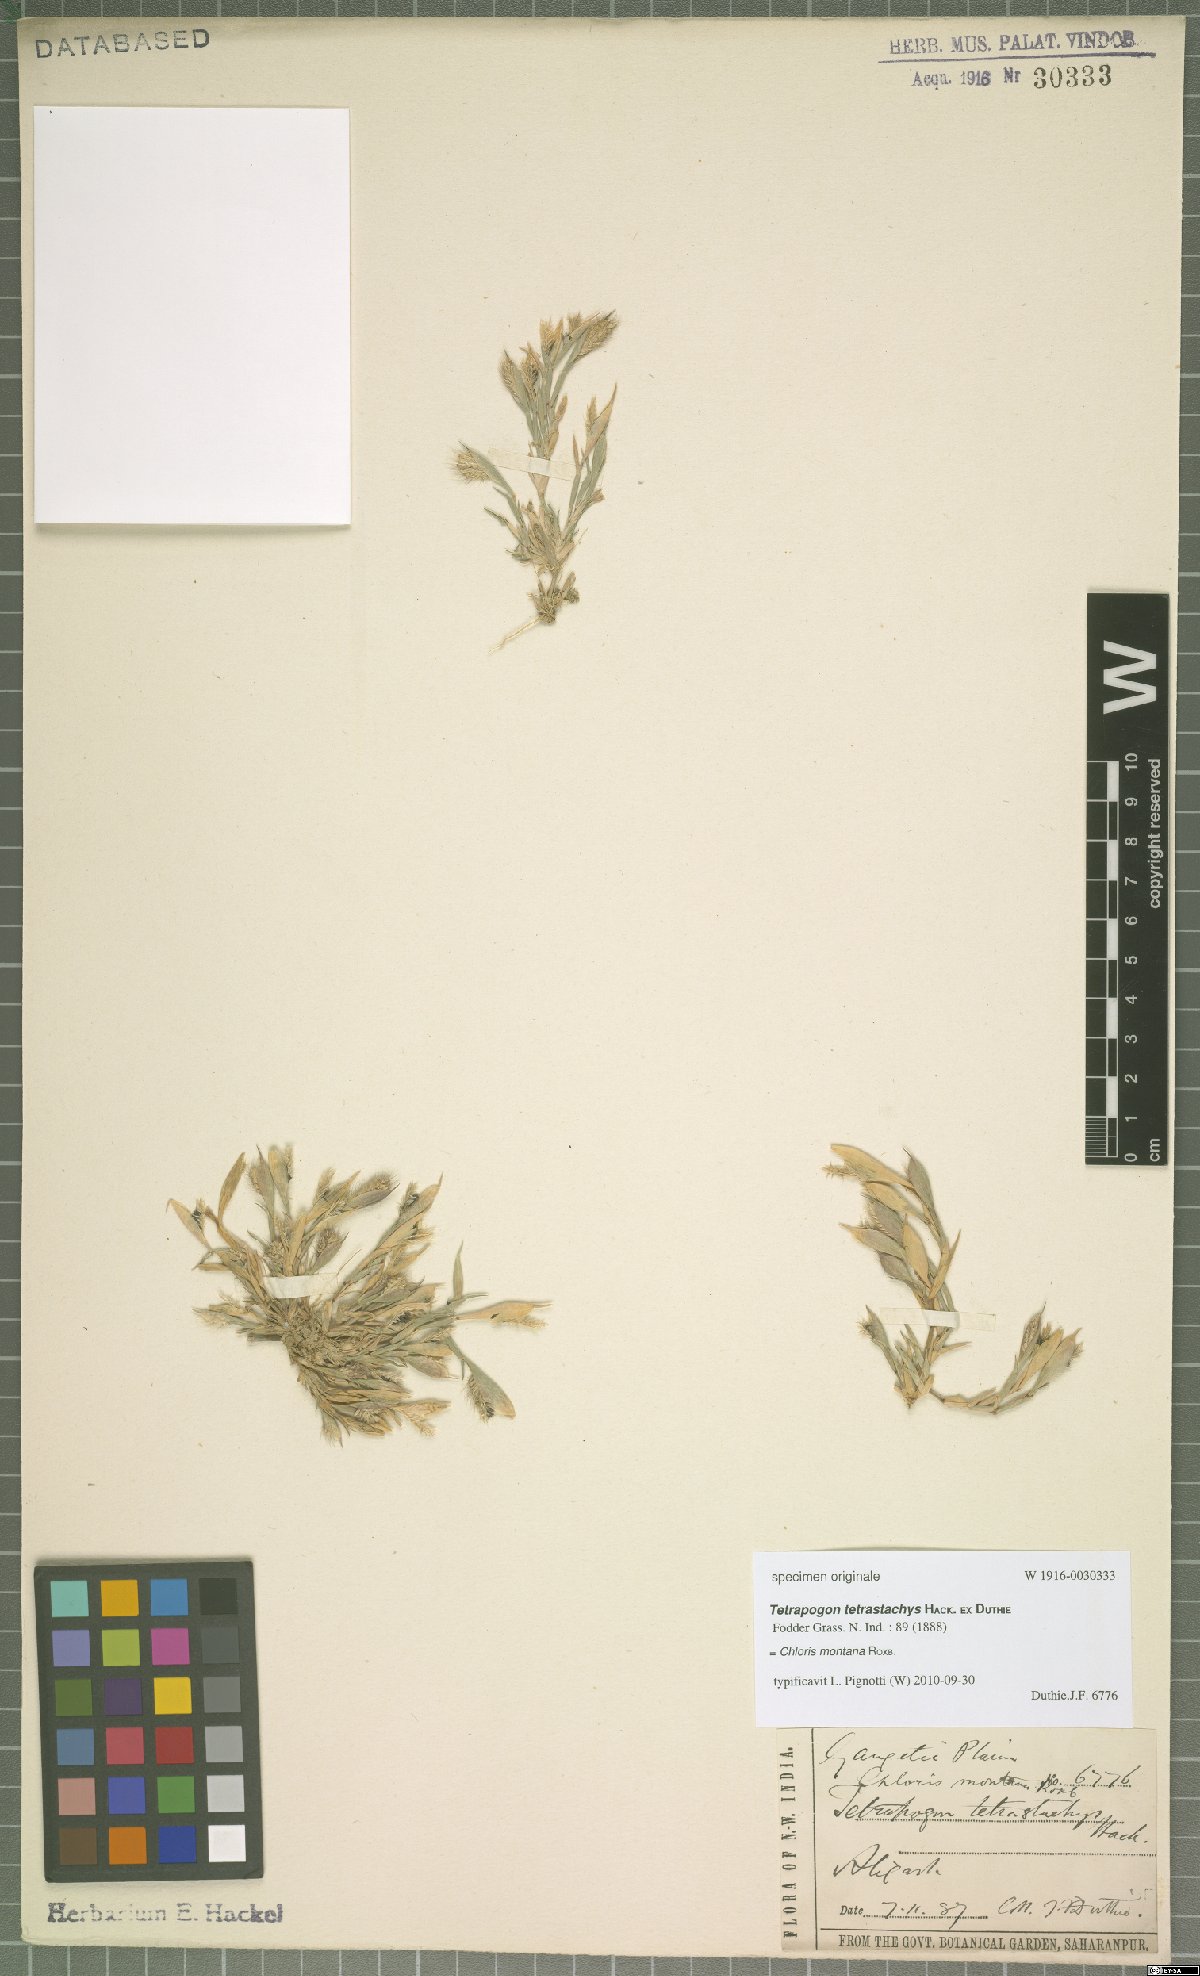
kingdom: Plantae
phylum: Tracheophyta
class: Liliopsida
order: Poales
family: Poaceae
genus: Chloris
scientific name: Chloris montana
